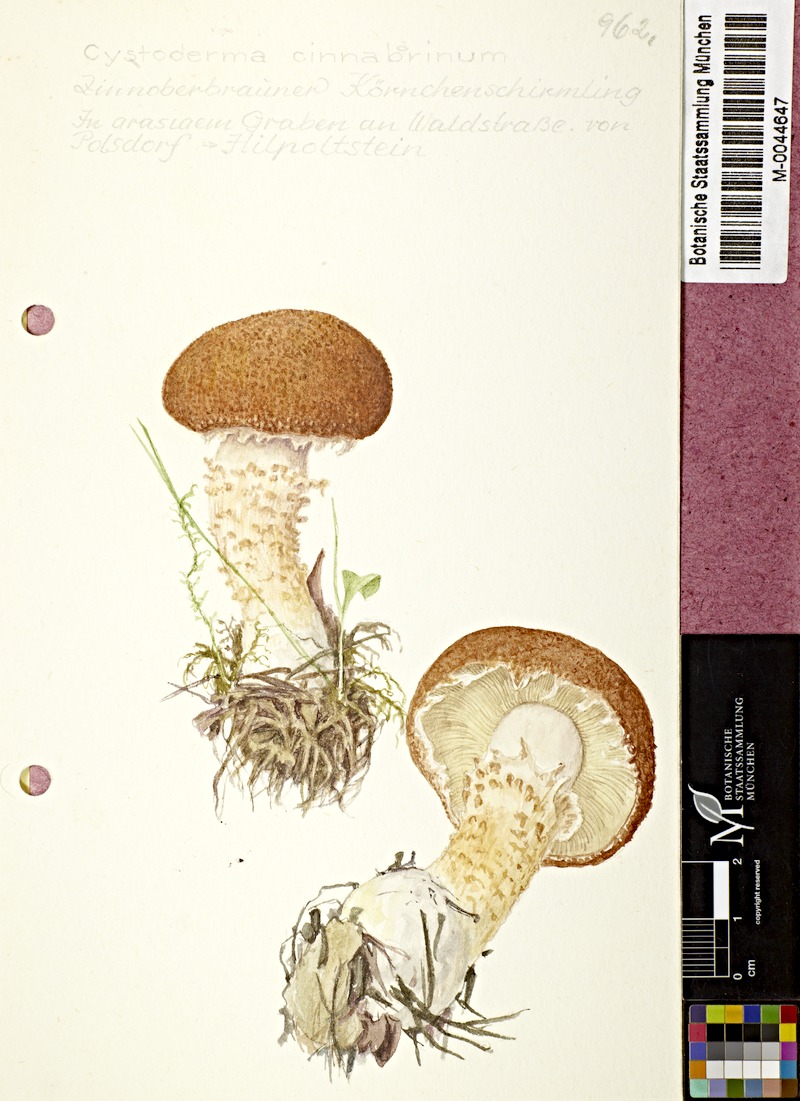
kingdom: Fungi
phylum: Basidiomycota
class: Agaricomycetes
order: Agaricales
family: Agaricaceae
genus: Cystodermella
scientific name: Cystodermella terryi
